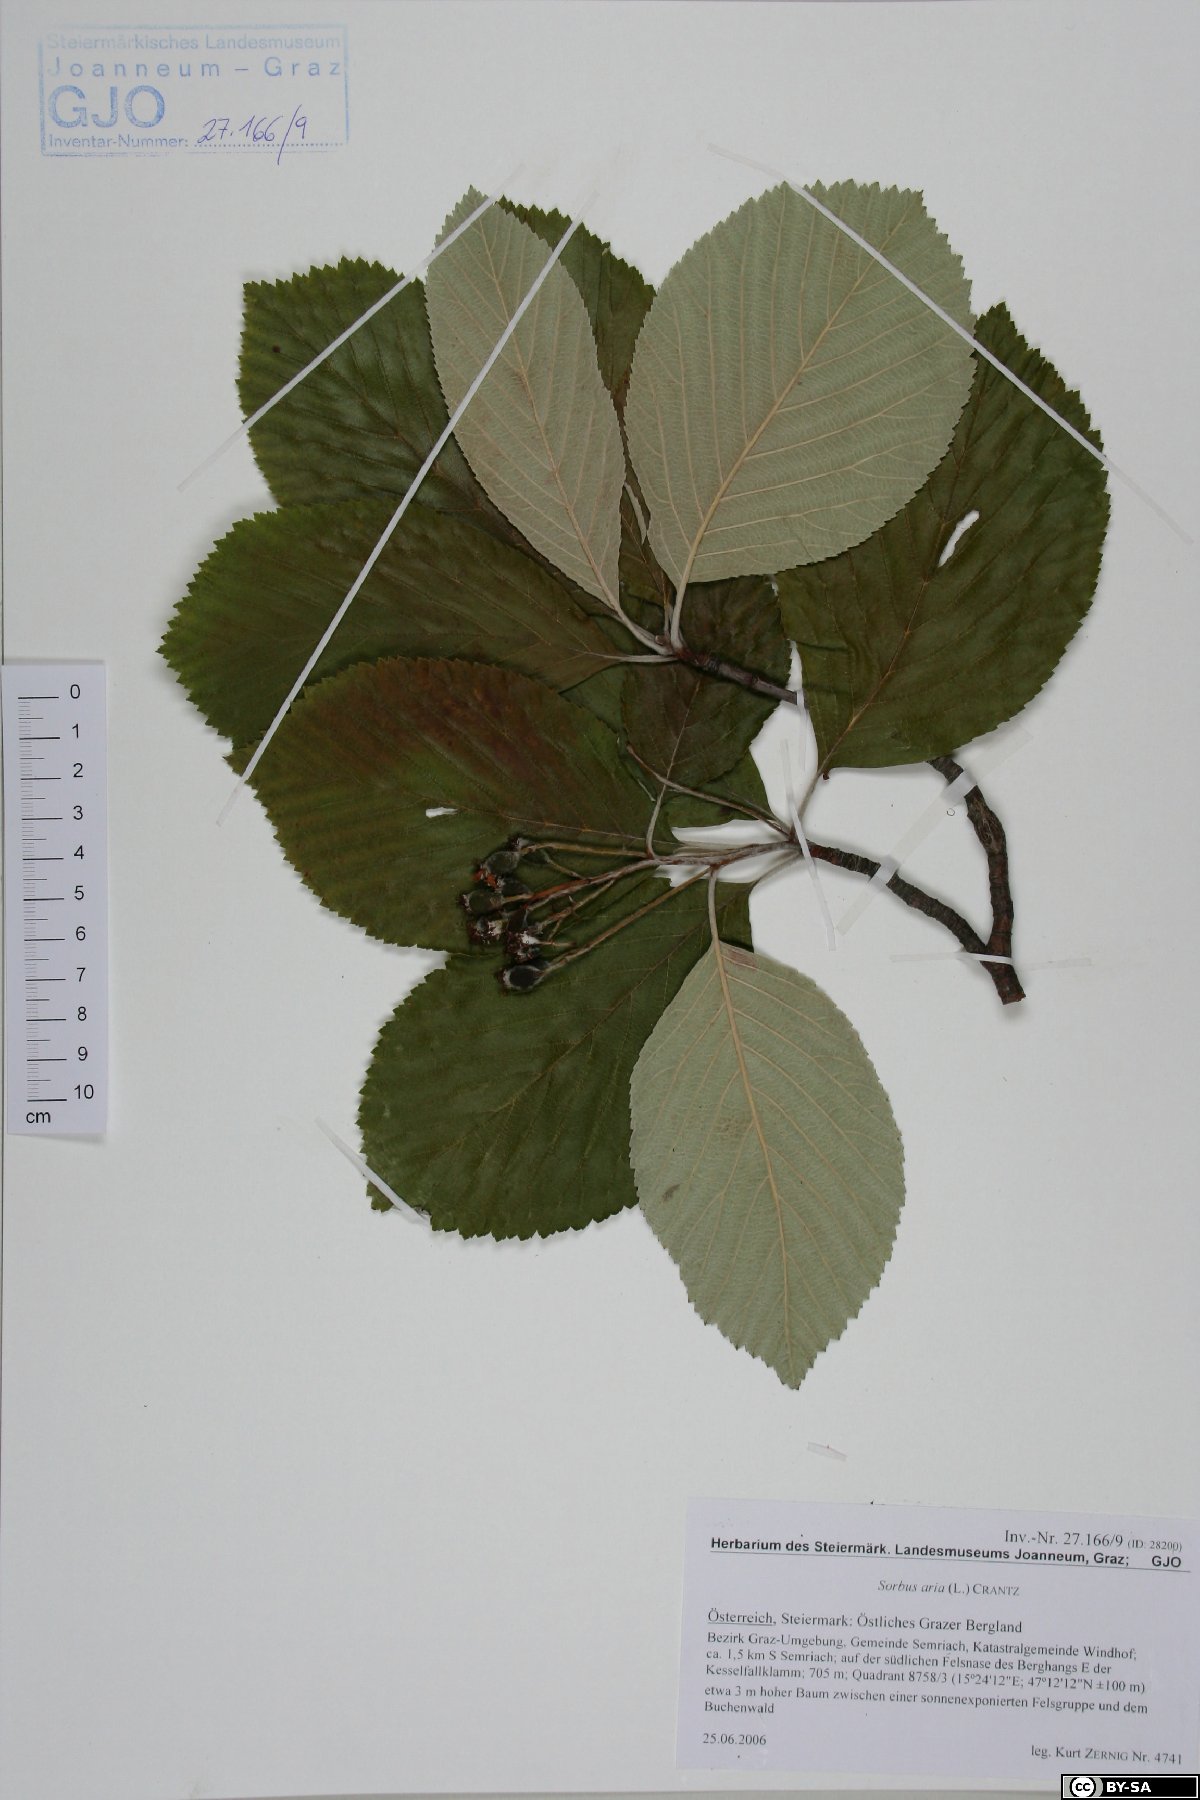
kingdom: Plantae
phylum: Tracheophyta
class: Magnoliopsida
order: Rosales
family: Rosaceae
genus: Aria
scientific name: Aria edulis
